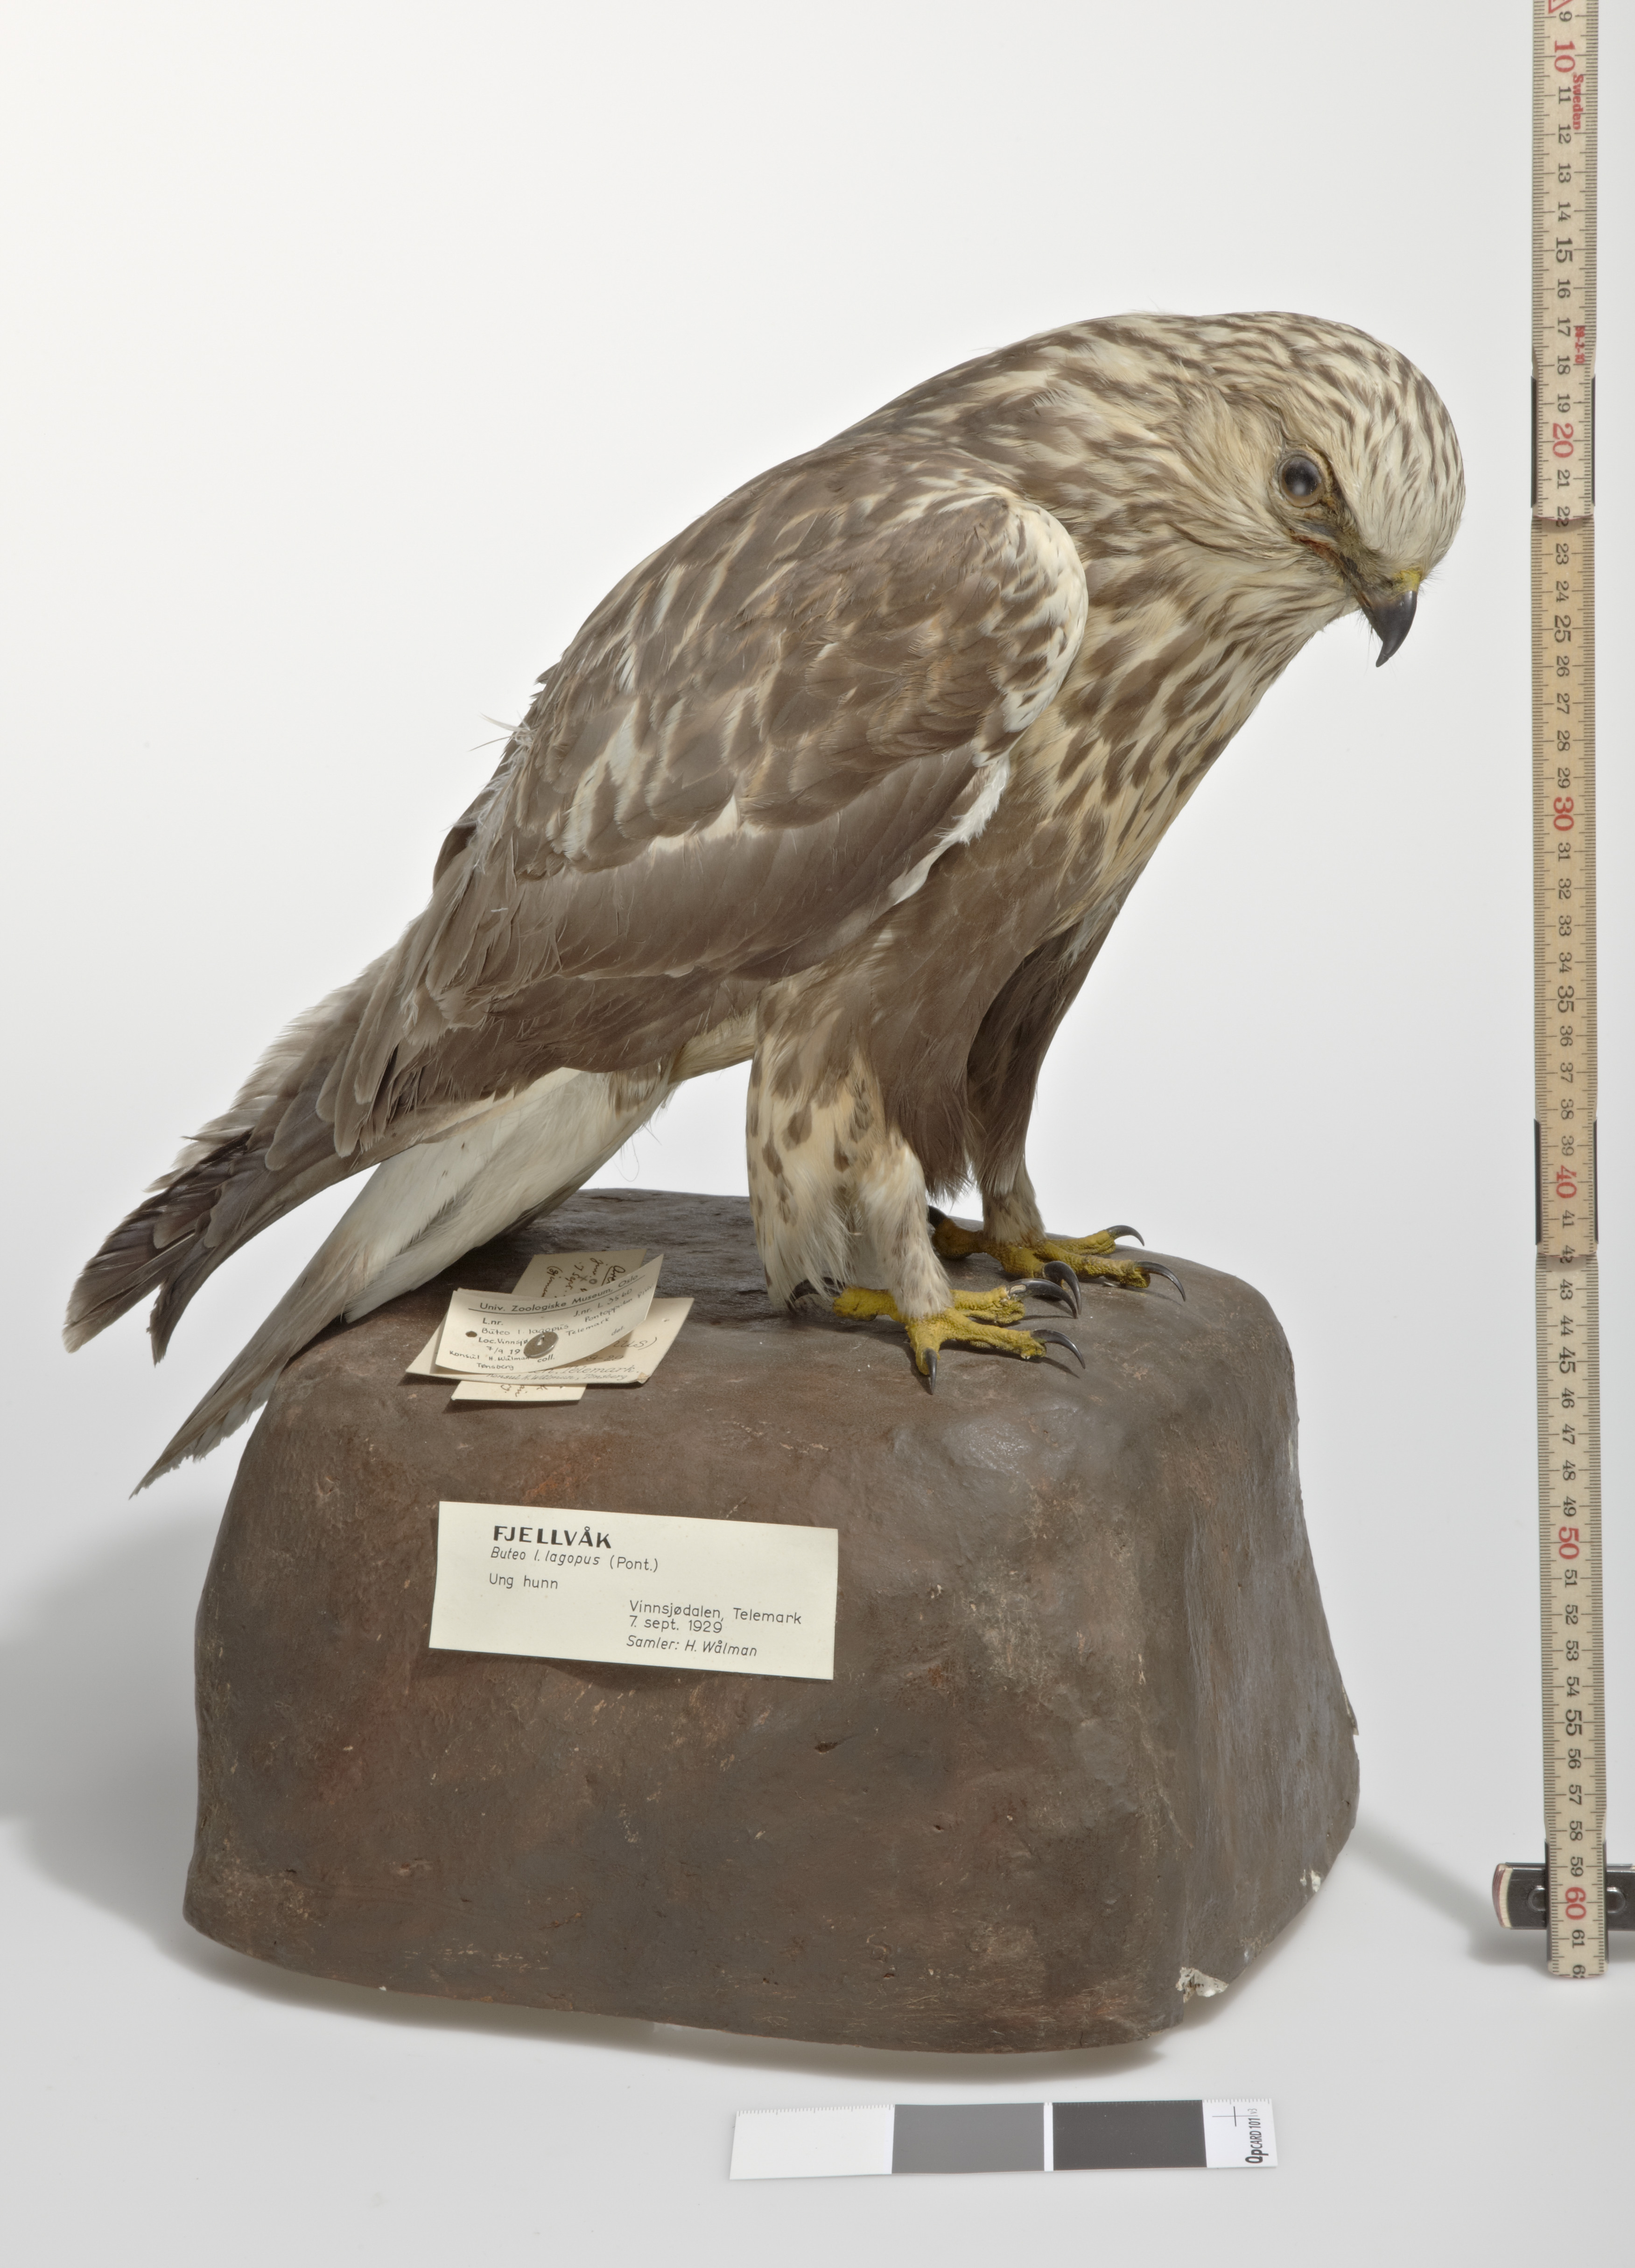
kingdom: Animalia
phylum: Chordata
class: Aves
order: Accipitriformes
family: Accipitridae
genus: Buteo
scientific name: Buteo lagopus
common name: Rough-legged buzzard
